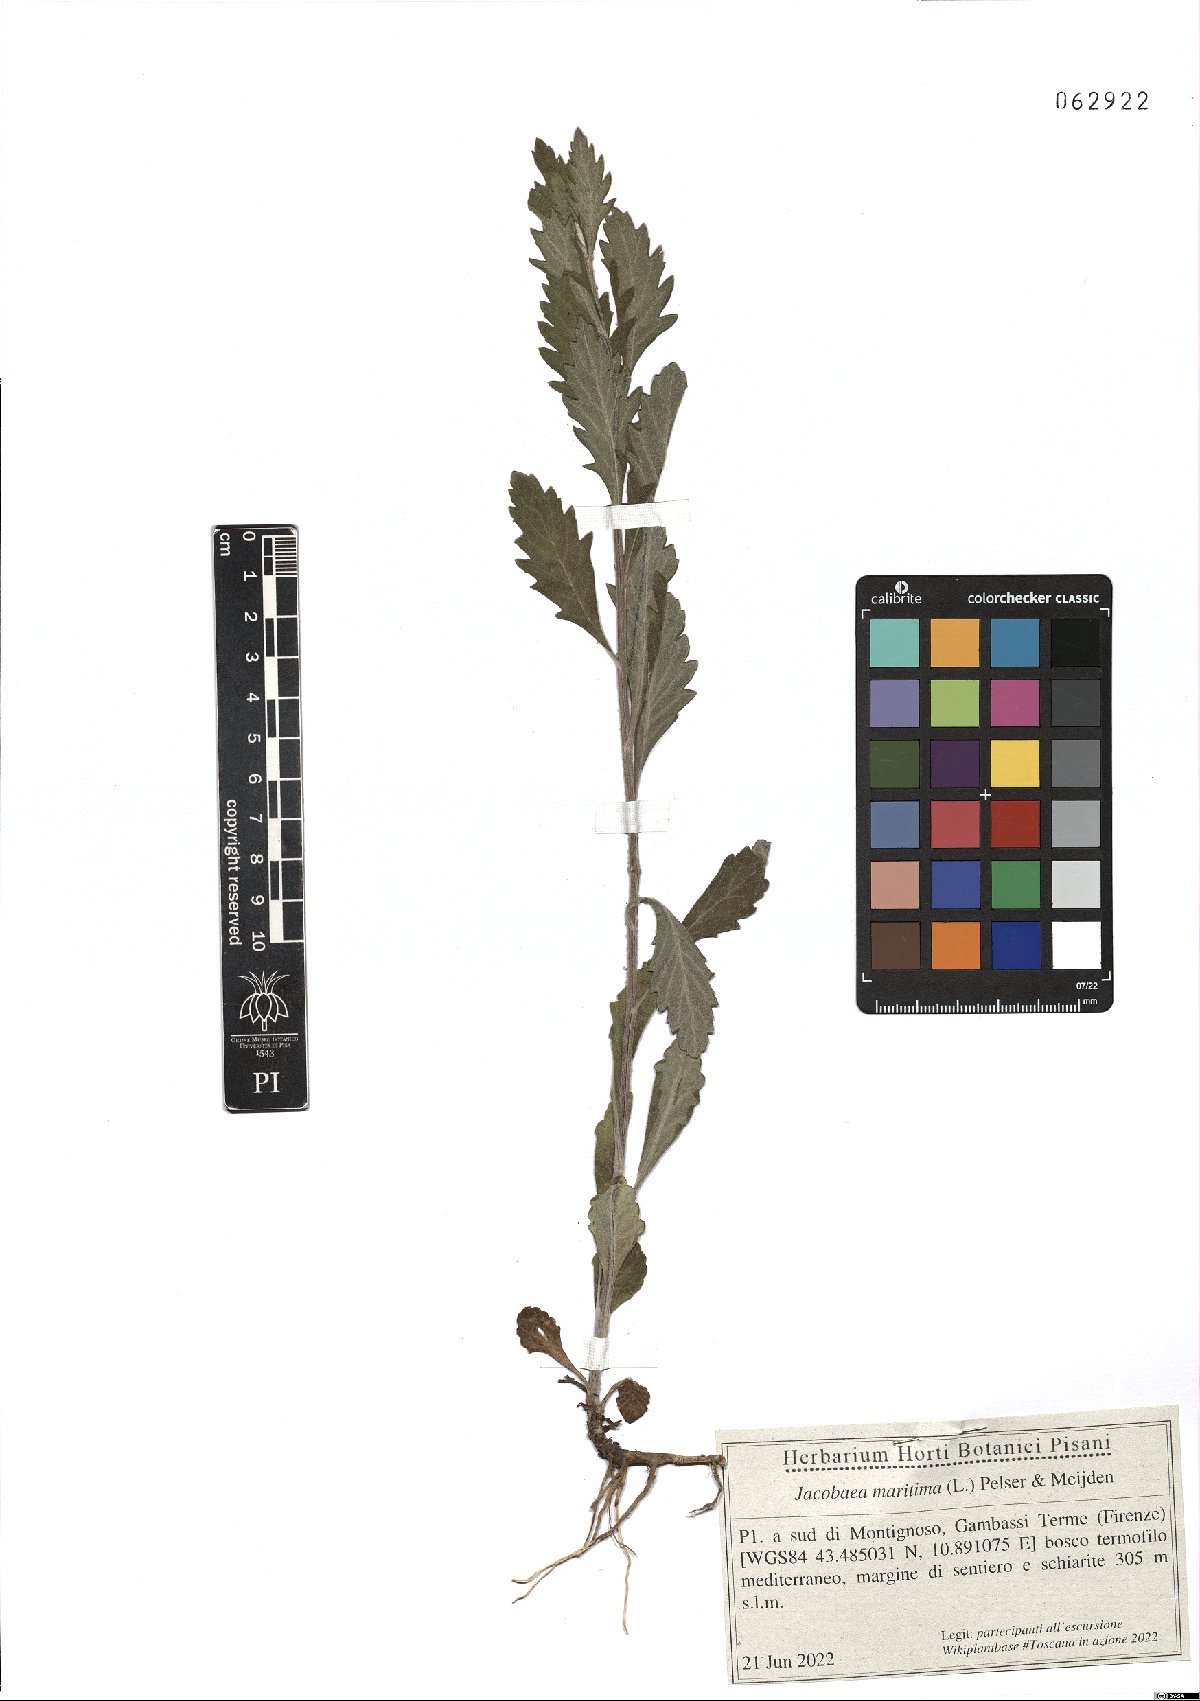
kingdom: Plantae
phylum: Tracheophyta
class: Magnoliopsida
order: Asterales
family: Asteraceae
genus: Jacobaea
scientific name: Jacobaea maritima
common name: Silver ragwort
